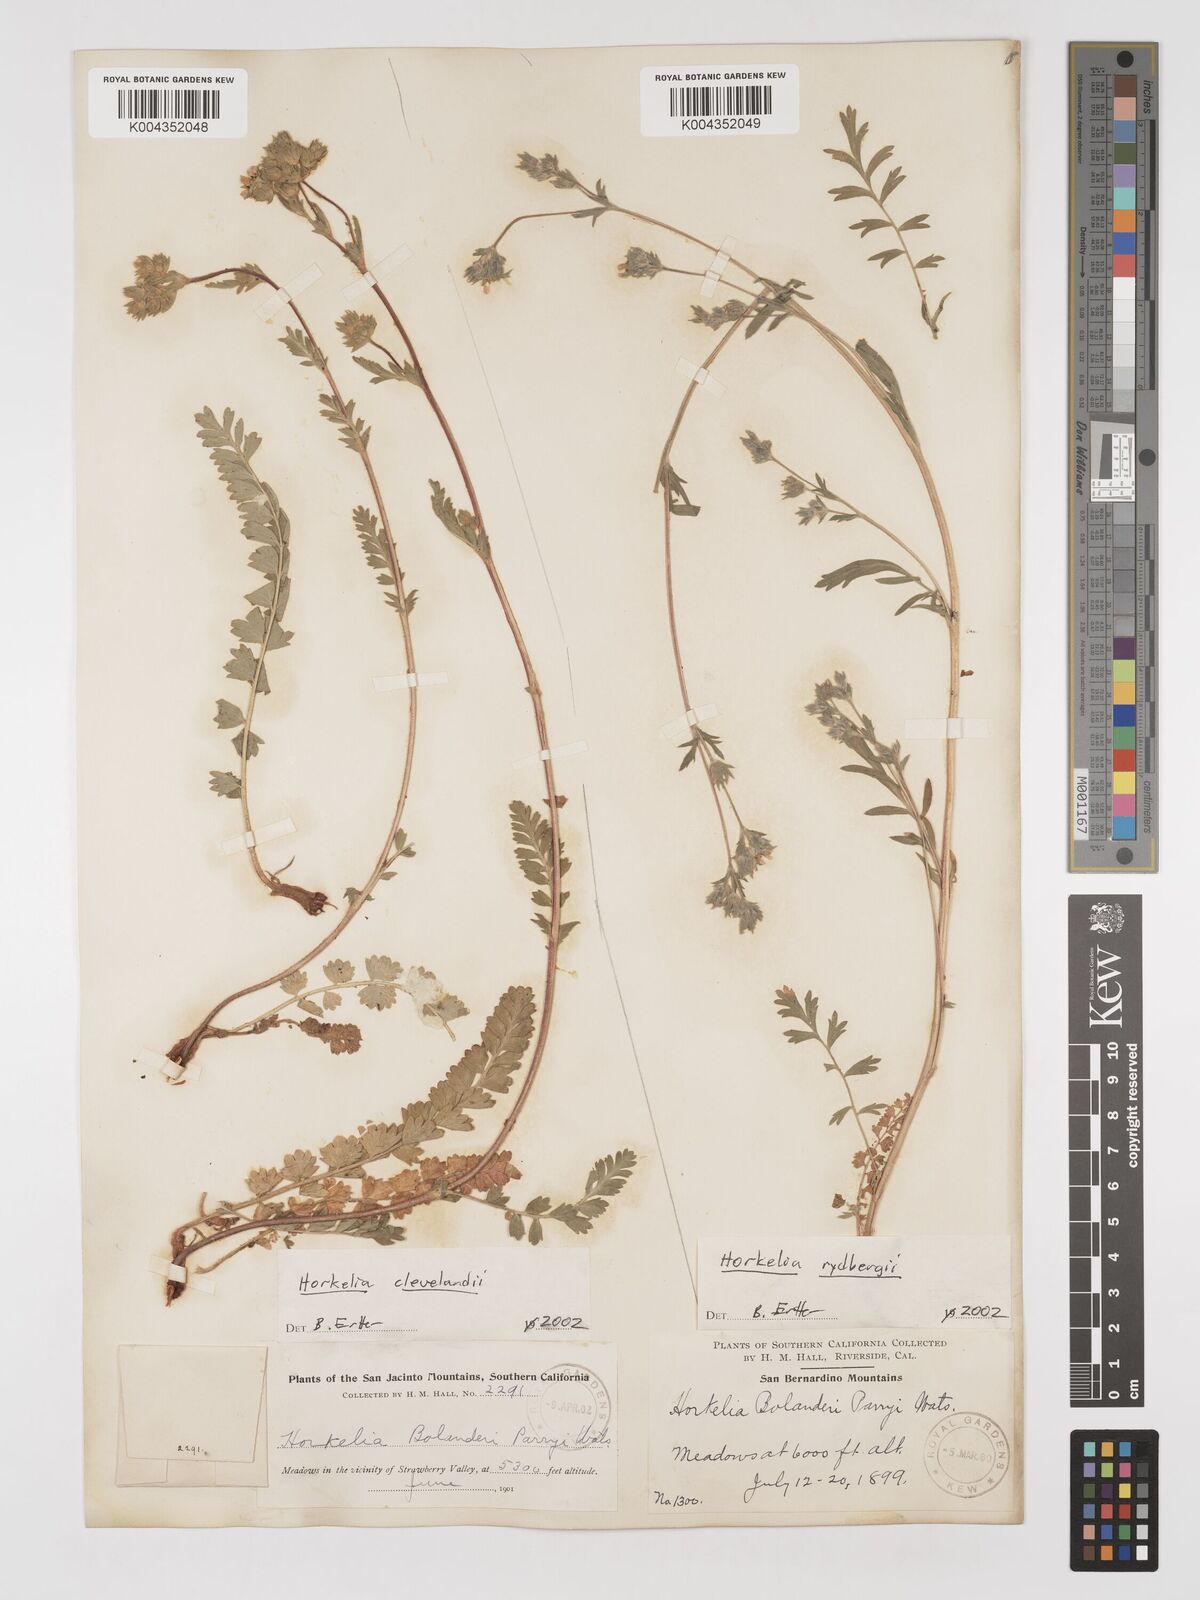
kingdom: Plantae
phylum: Tracheophyta
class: Magnoliopsida
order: Rosales
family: Rosaceae
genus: Potentilla
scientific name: Potentilla clevelandii
